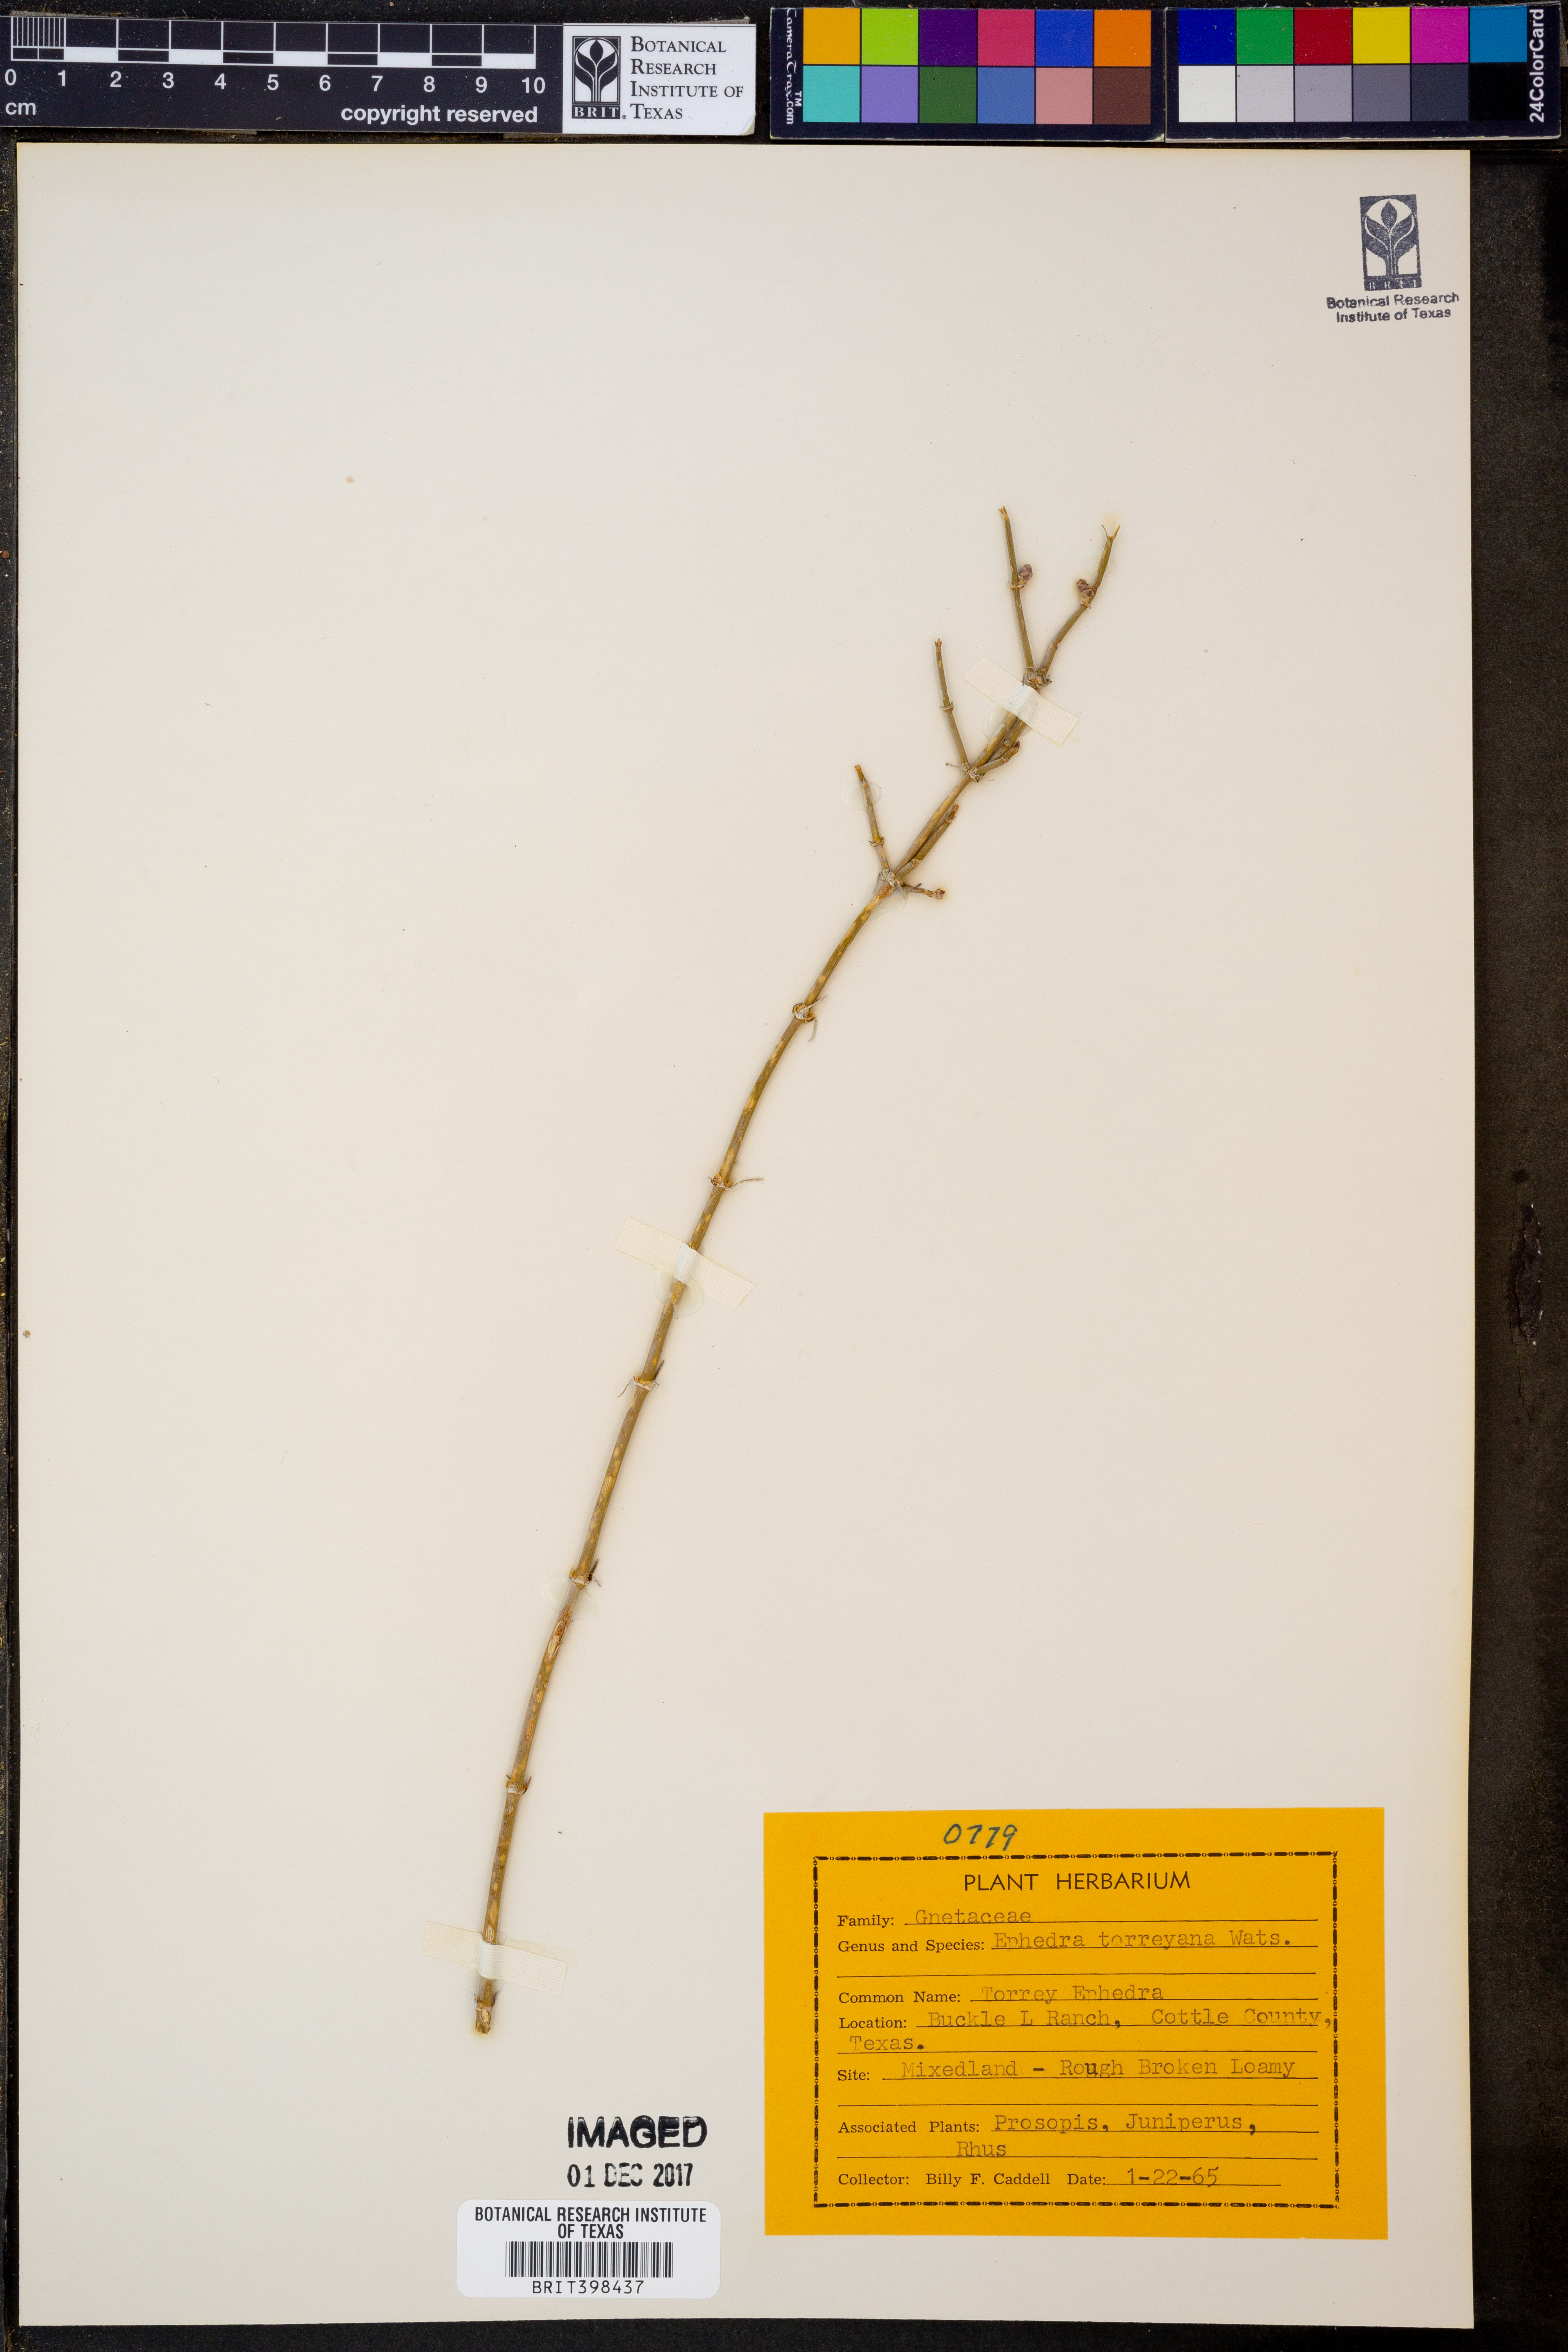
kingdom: Plantae
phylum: Tracheophyta
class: Gnetopsida
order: Ephedrales
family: Ephedraceae
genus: Ephedra
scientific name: Ephedra torreyana
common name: Torrey ephedra
